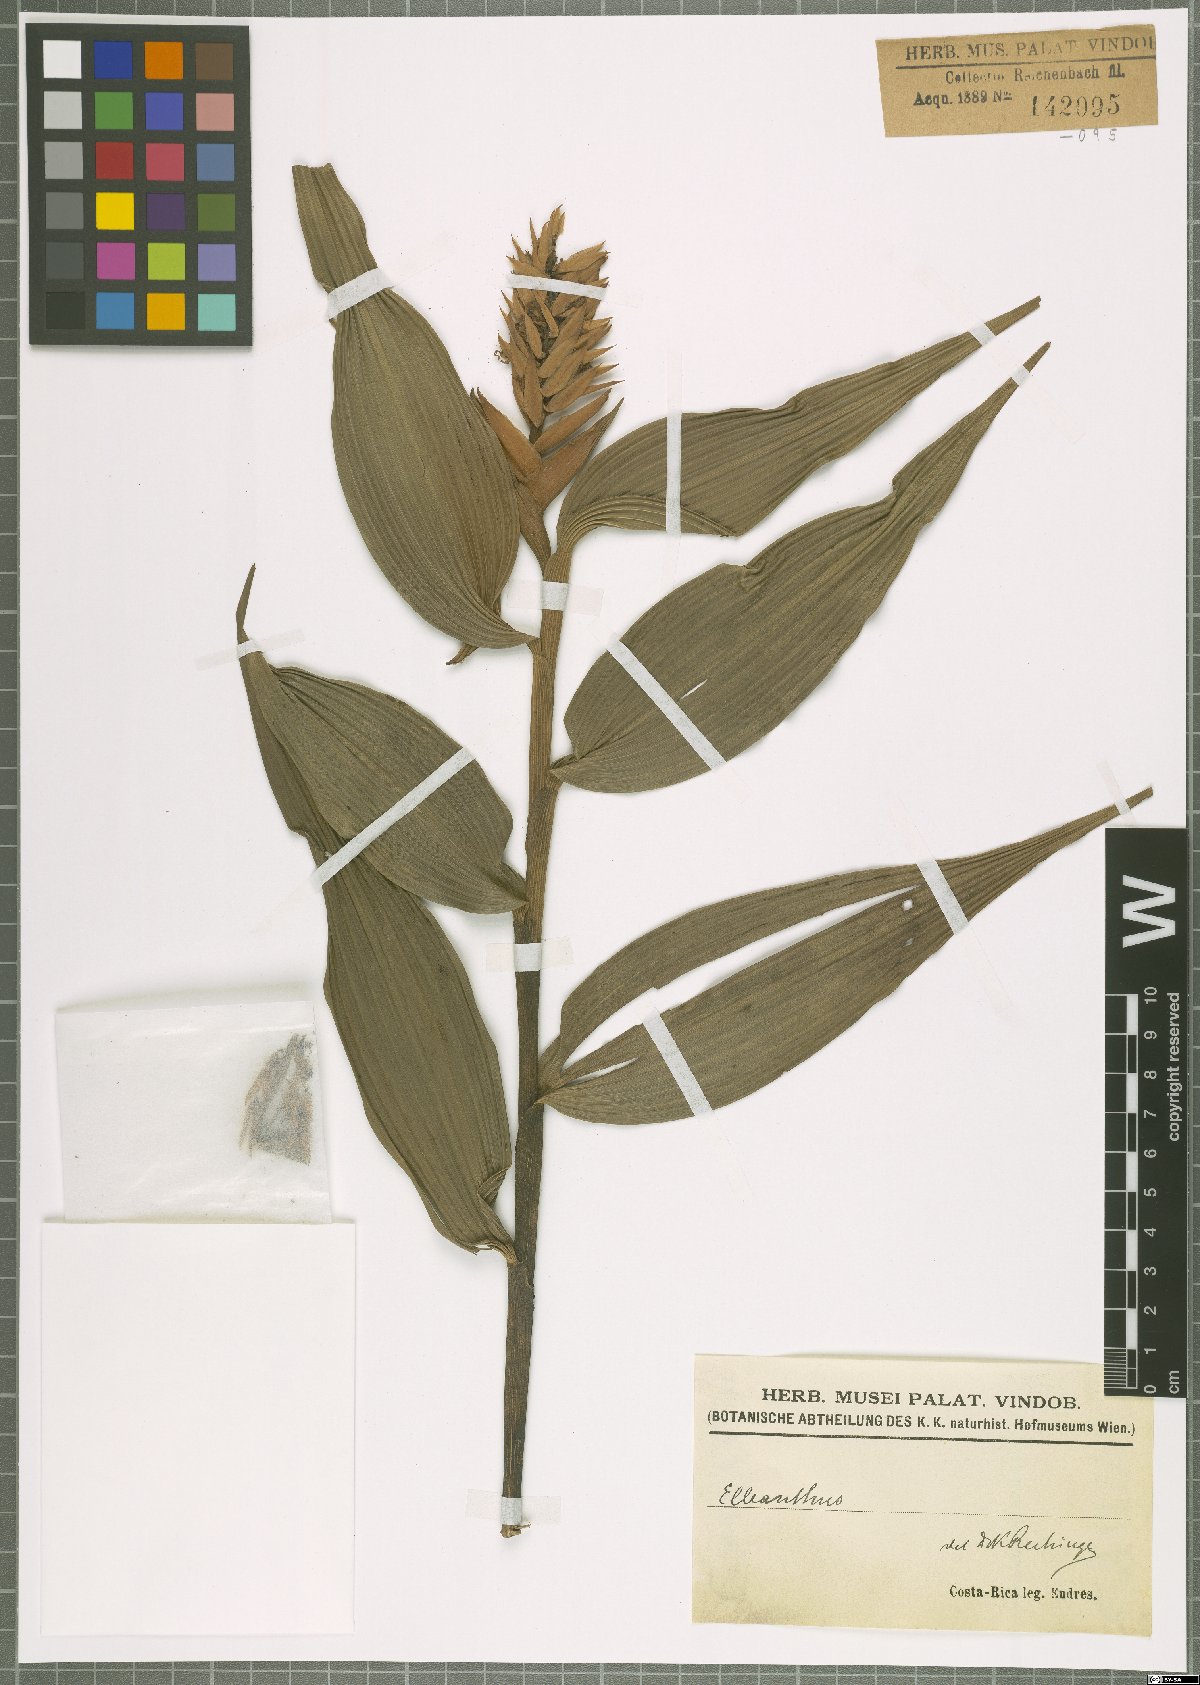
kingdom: Plantae
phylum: Tracheophyta
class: Liliopsida
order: Asparagales
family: Orchidaceae
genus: Elleanthus
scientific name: Elleanthus
